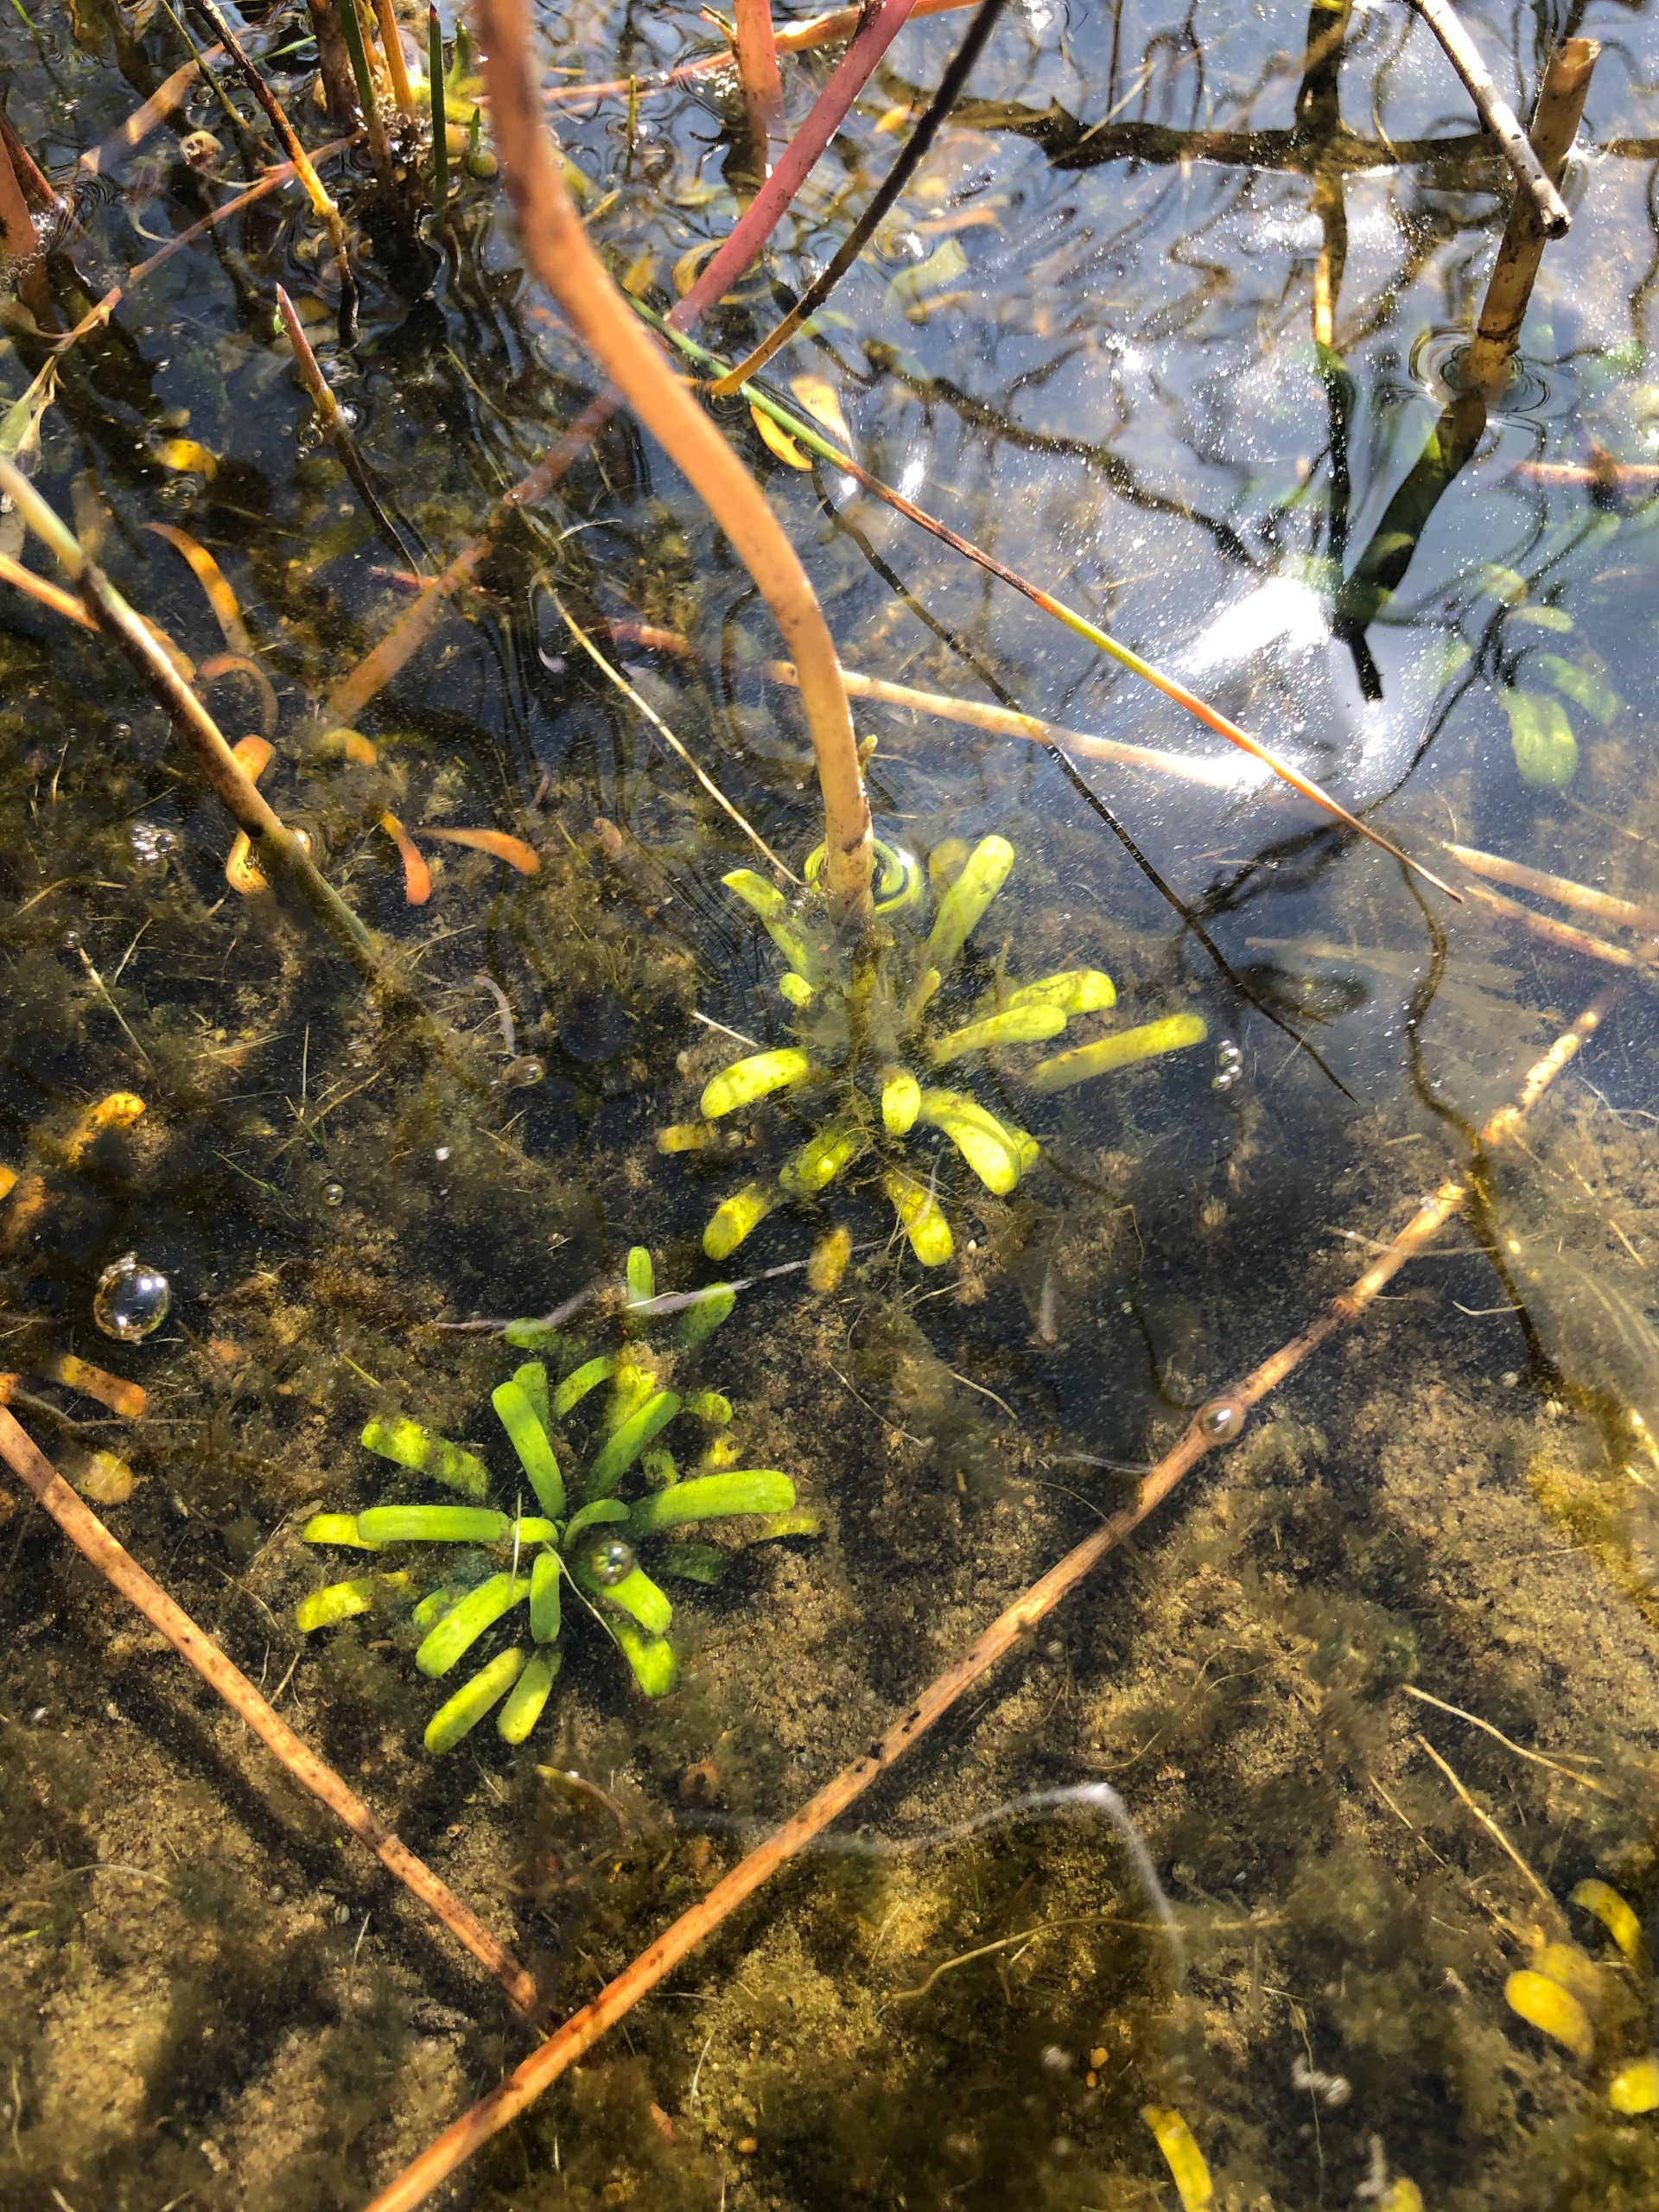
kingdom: Plantae
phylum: Tracheophyta
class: Magnoliopsida
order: Asterales
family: Campanulaceae
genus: Lobelia
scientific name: Lobelia dortmanna
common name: Tvepibet lobelie
